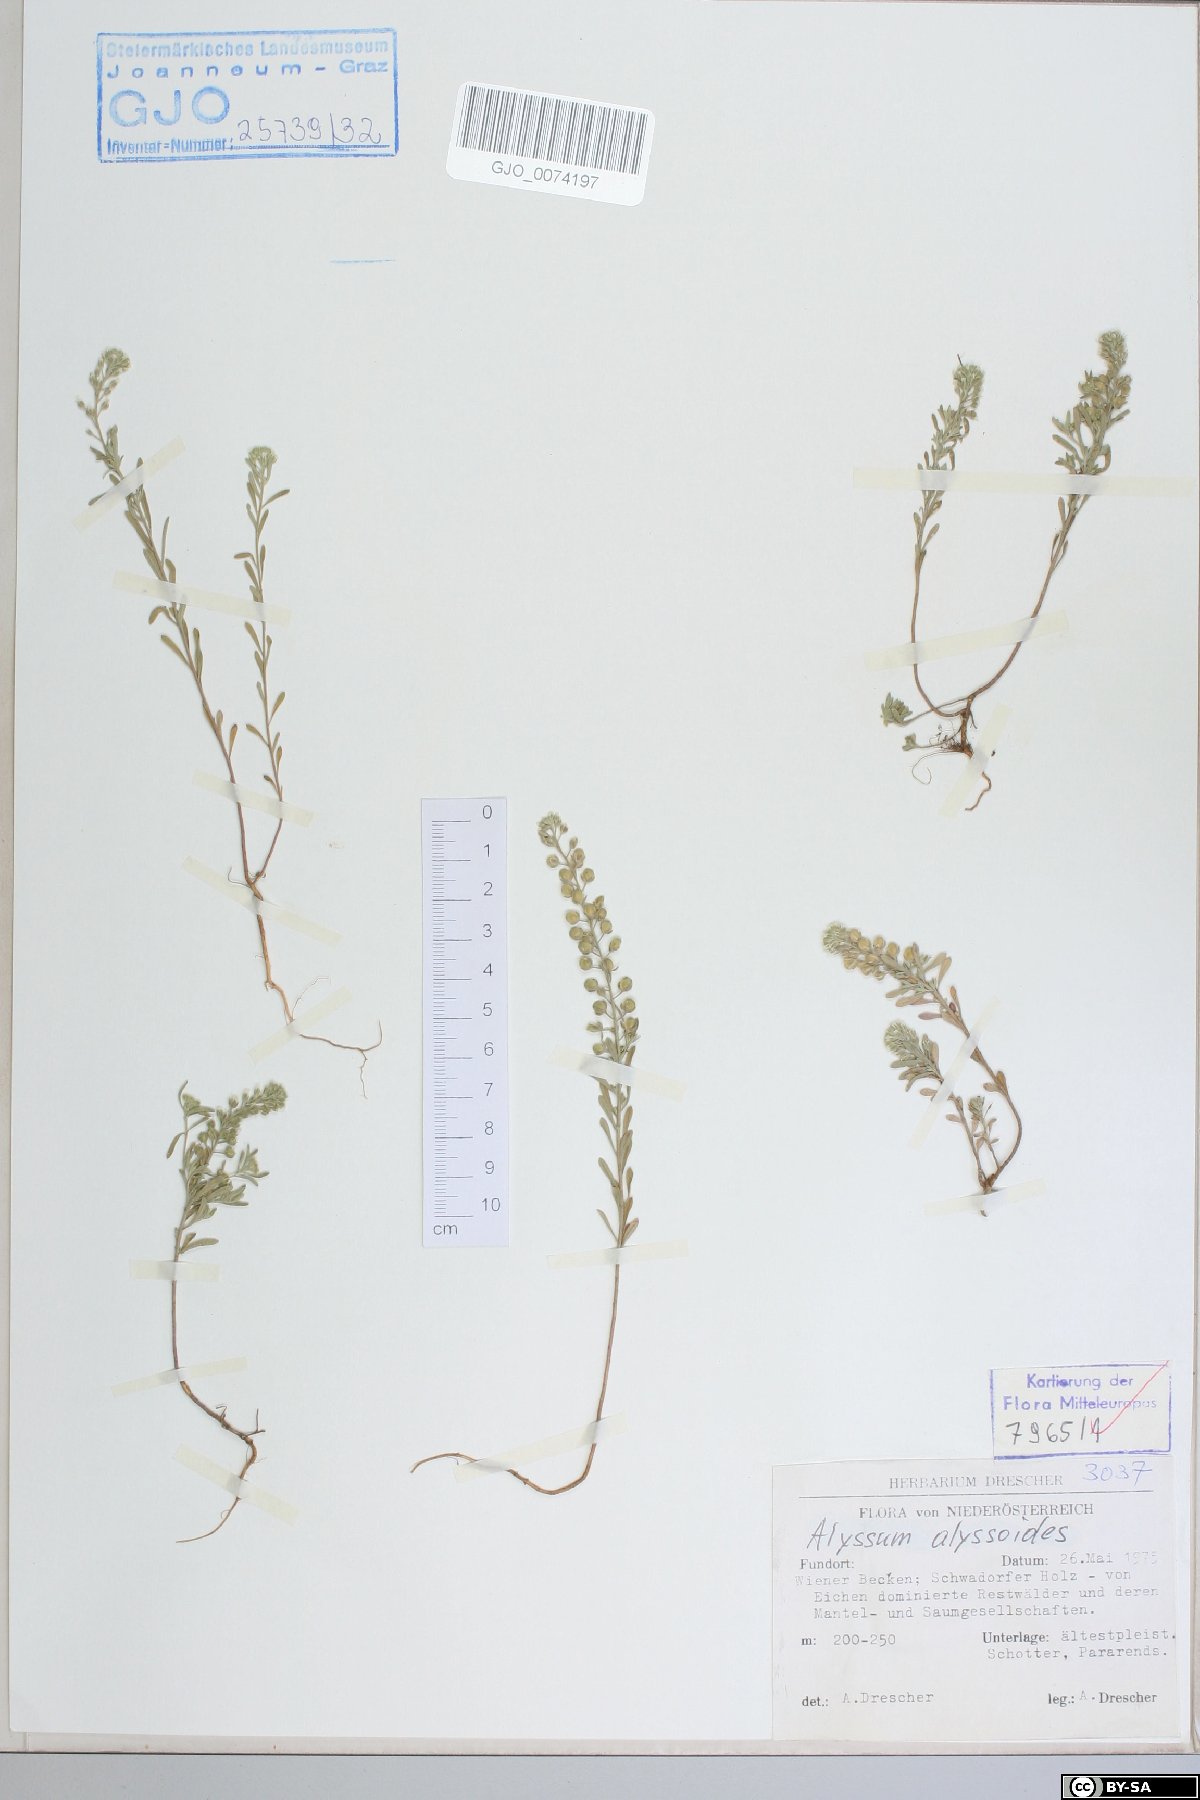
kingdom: Plantae
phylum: Tracheophyta
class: Magnoliopsida
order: Brassicales
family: Brassicaceae
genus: Alyssum
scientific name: Alyssum alyssoides
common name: Small alison
